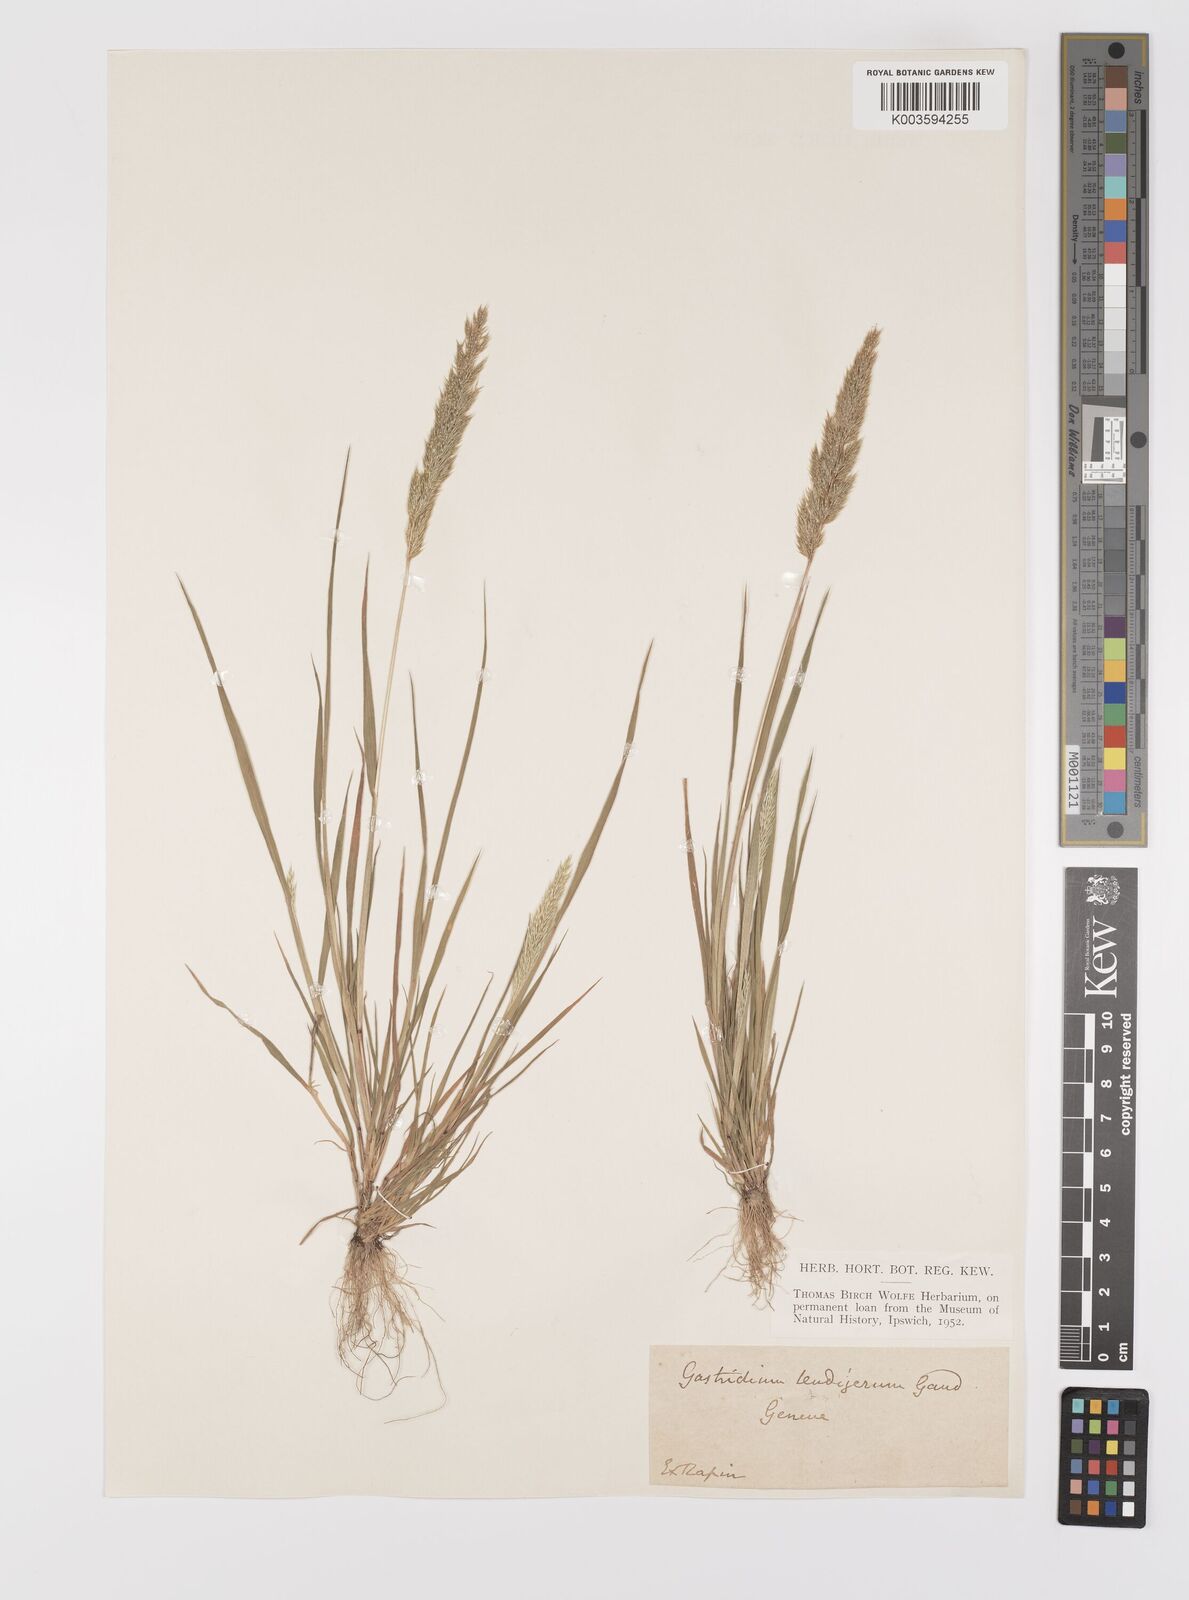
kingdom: Plantae
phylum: Tracheophyta
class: Liliopsida
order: Poales
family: Poaceae
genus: Gastridium
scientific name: Gastridium ventricosum
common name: Nit-grass
